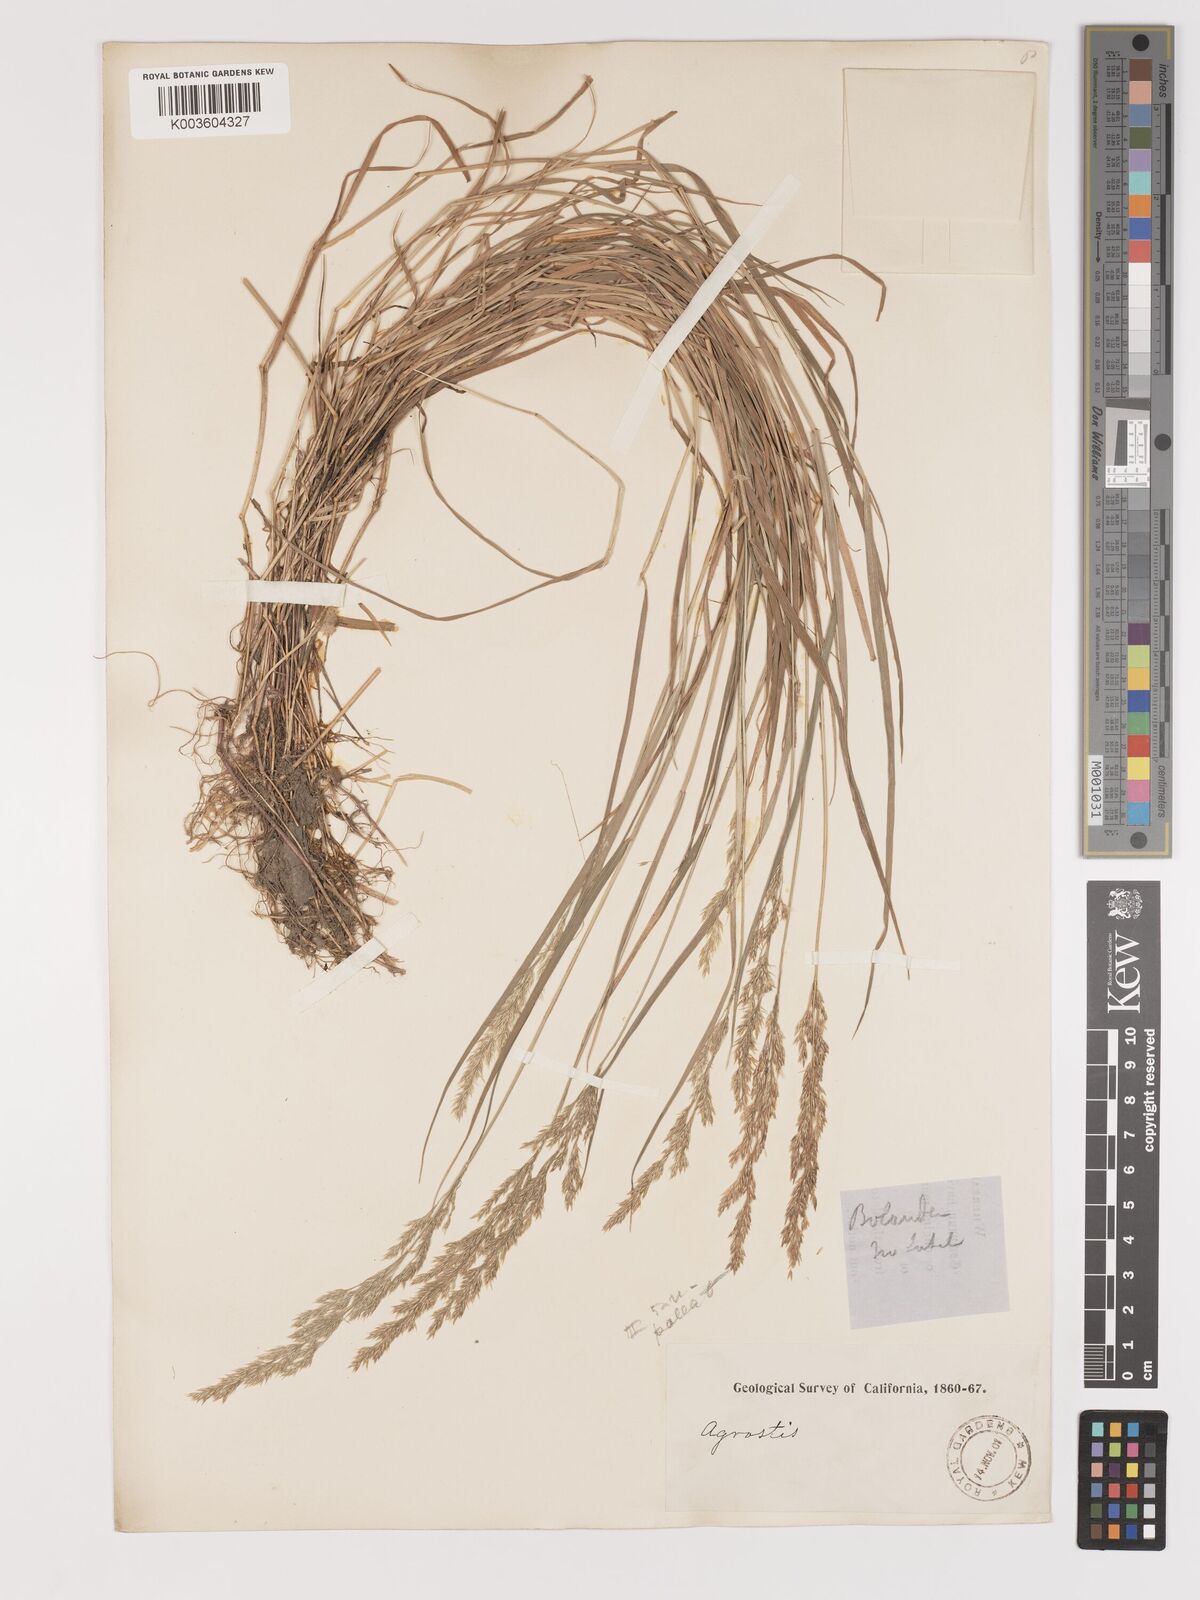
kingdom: Plantae
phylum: Tracheophyta
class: Liliopsida
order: Poales
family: Poaceae
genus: Agrostis
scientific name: Agrostis exarata
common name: Spike bent
